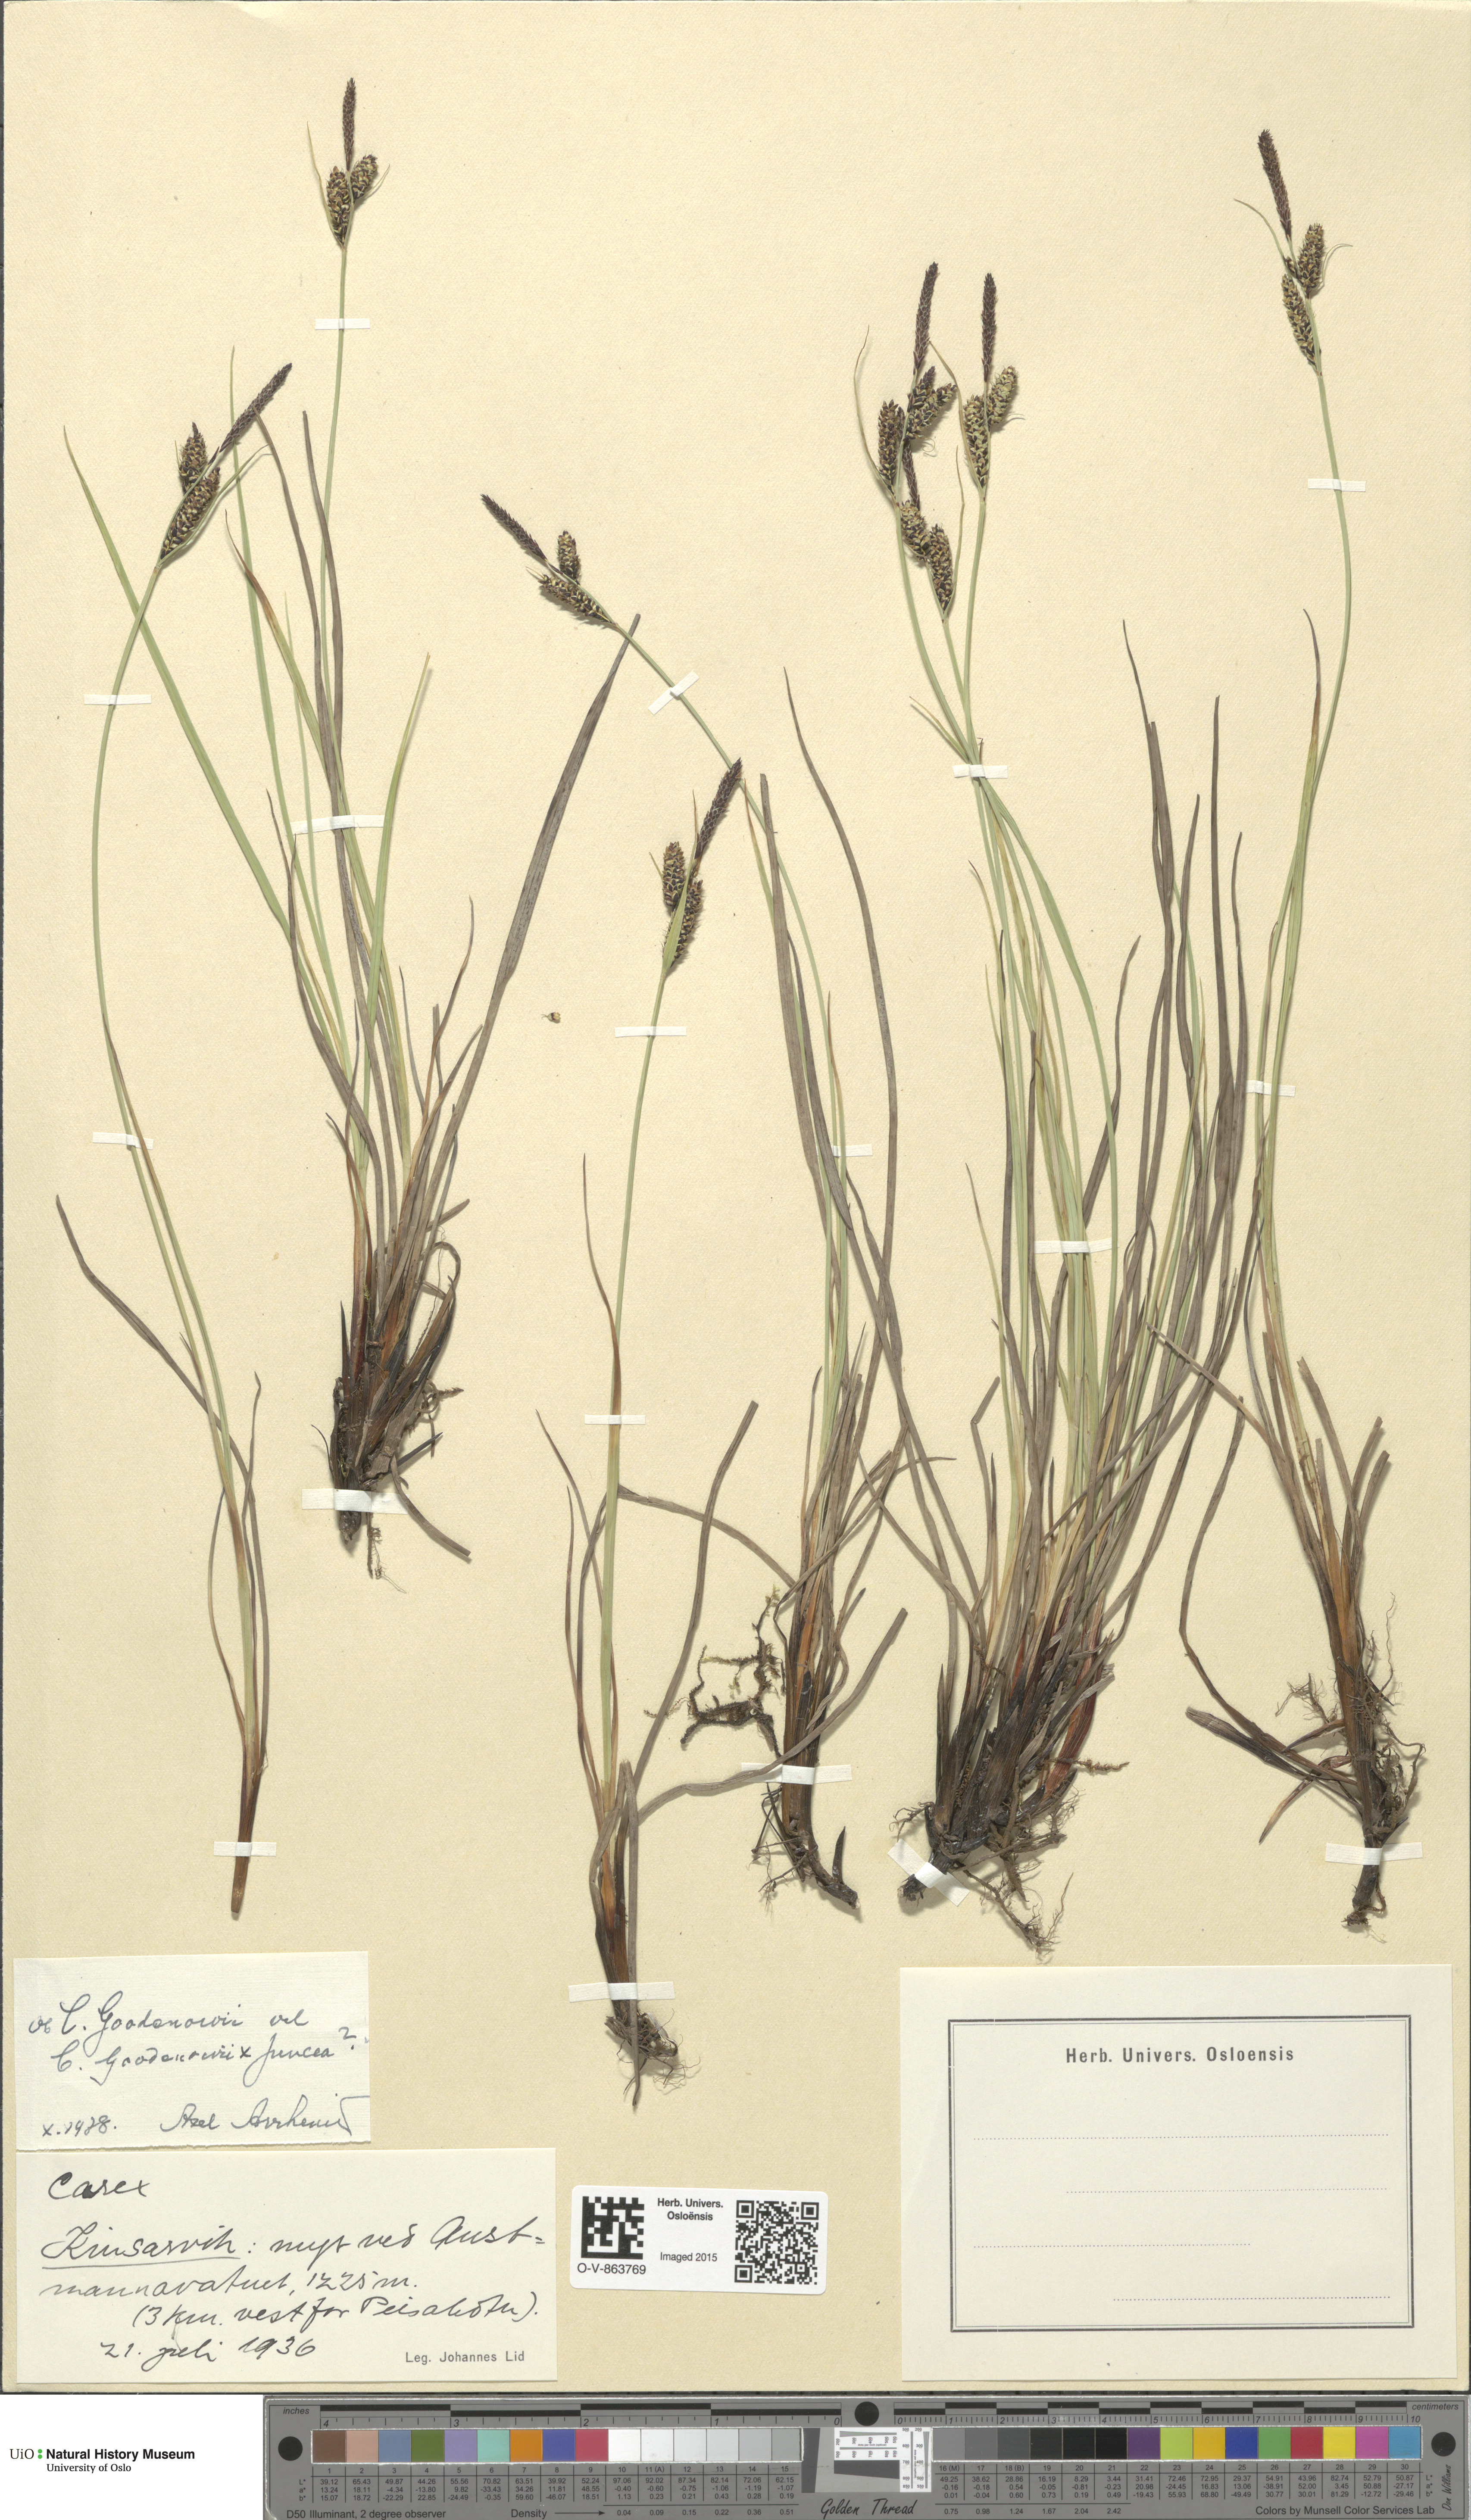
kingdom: Plantae
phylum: Tracheophyta
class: Liliopsida
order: Poales
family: Cyperaceae
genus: Carex
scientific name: Carex nigra
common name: Common sedge
